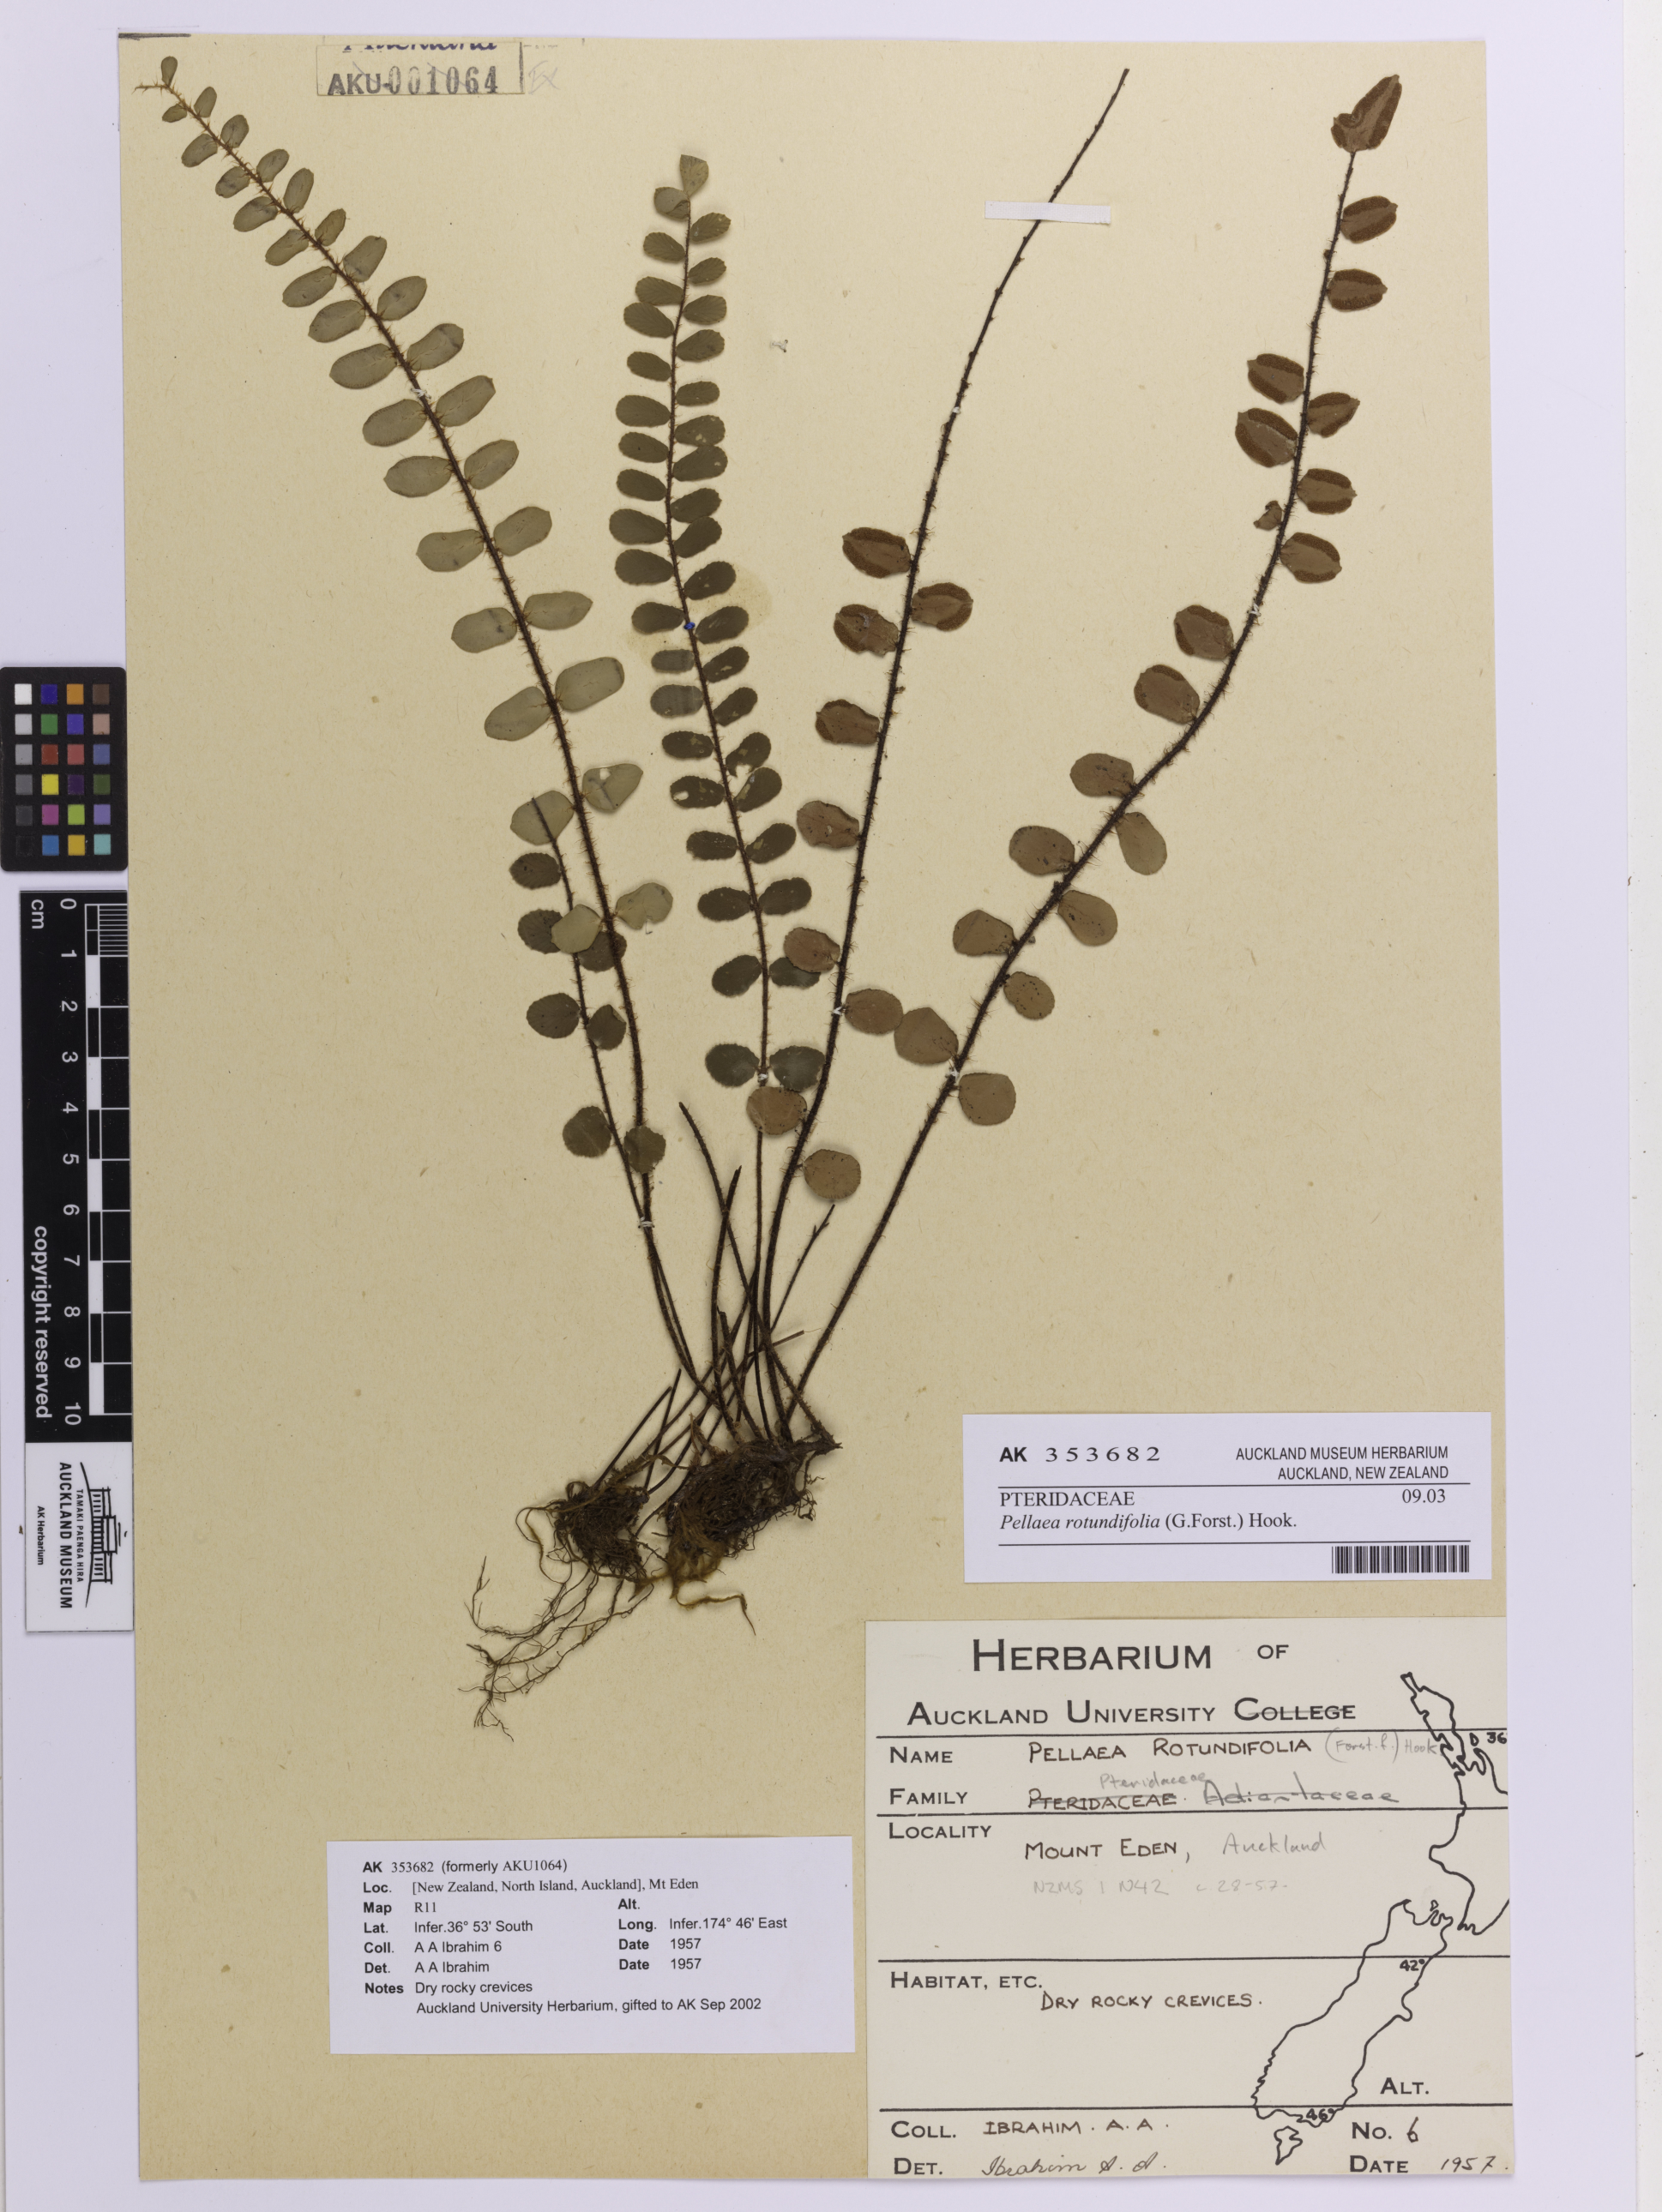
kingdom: Plantae
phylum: Tracheophyta
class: Polypodiopsida
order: Polypodiales
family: Pteridaceae
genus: Pellaea
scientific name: Pellaea rotundifolia
